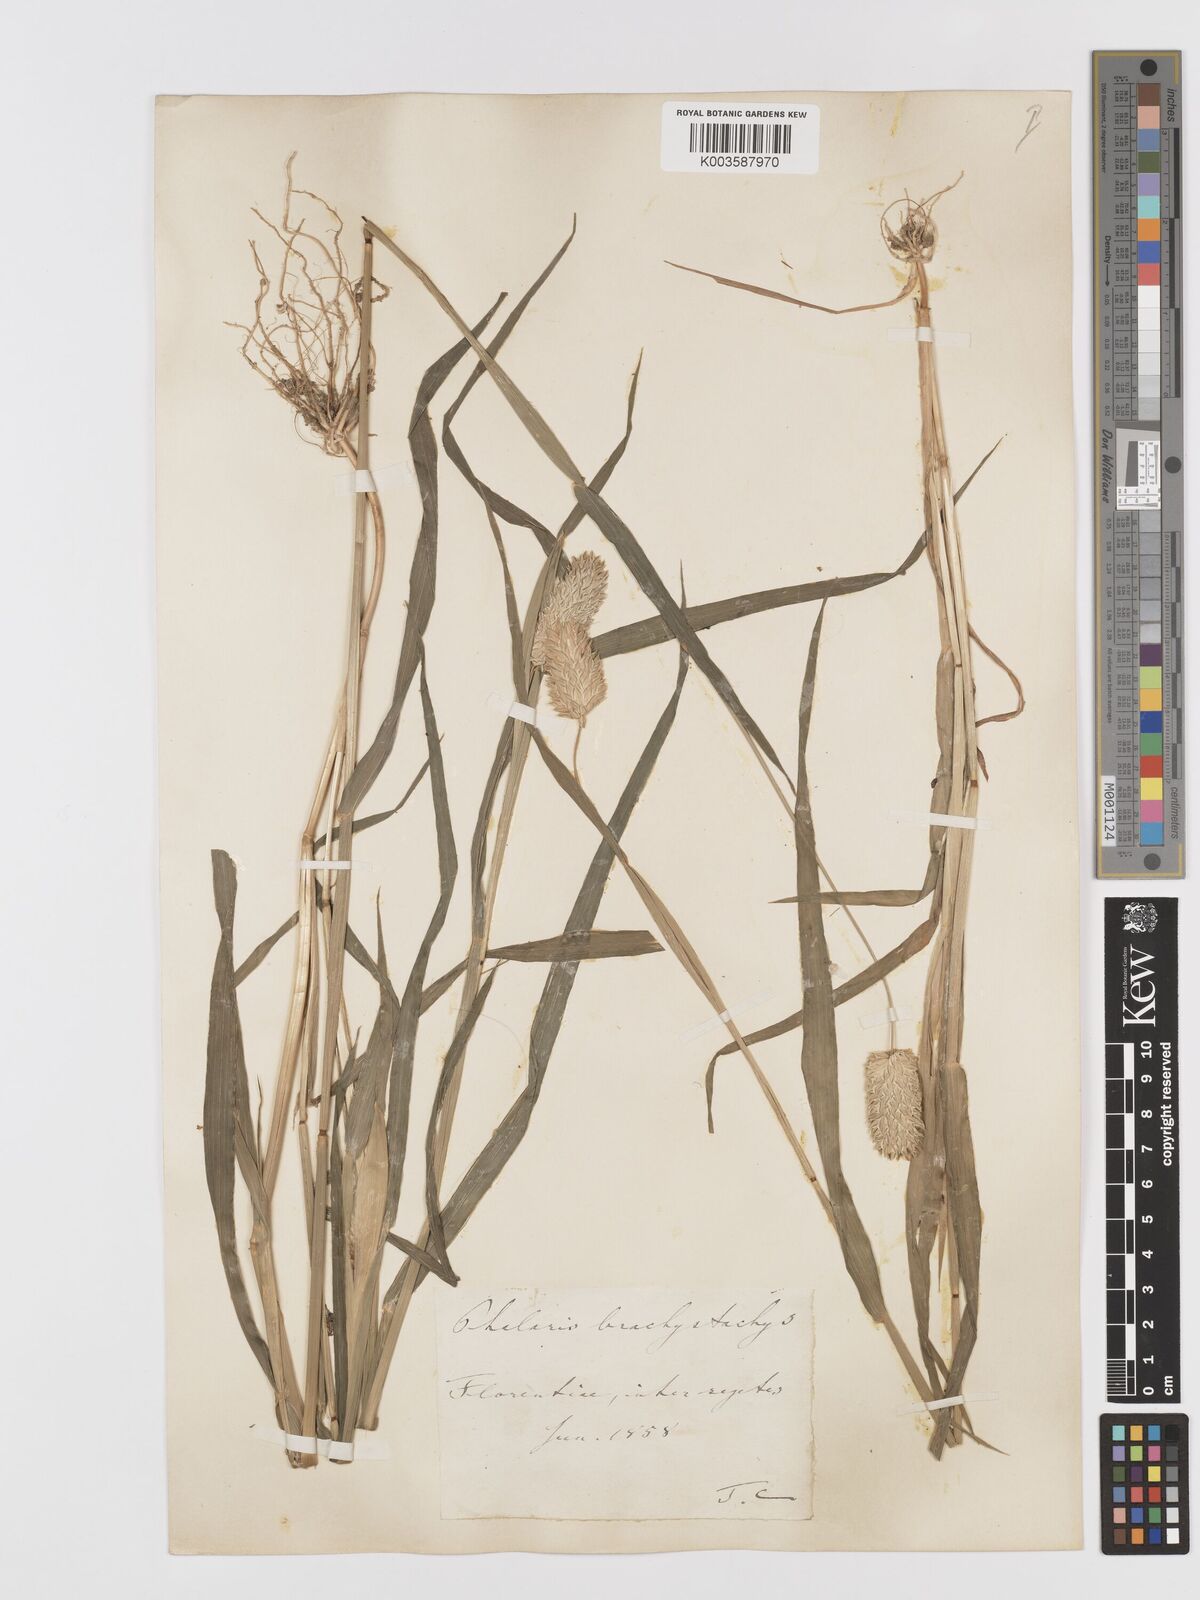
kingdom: Plantae
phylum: Tracheophyta
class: Liliopsida
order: Poales
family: Poaceae
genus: Phalaris
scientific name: Phalaris brachystachys
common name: Confused canary-grass
